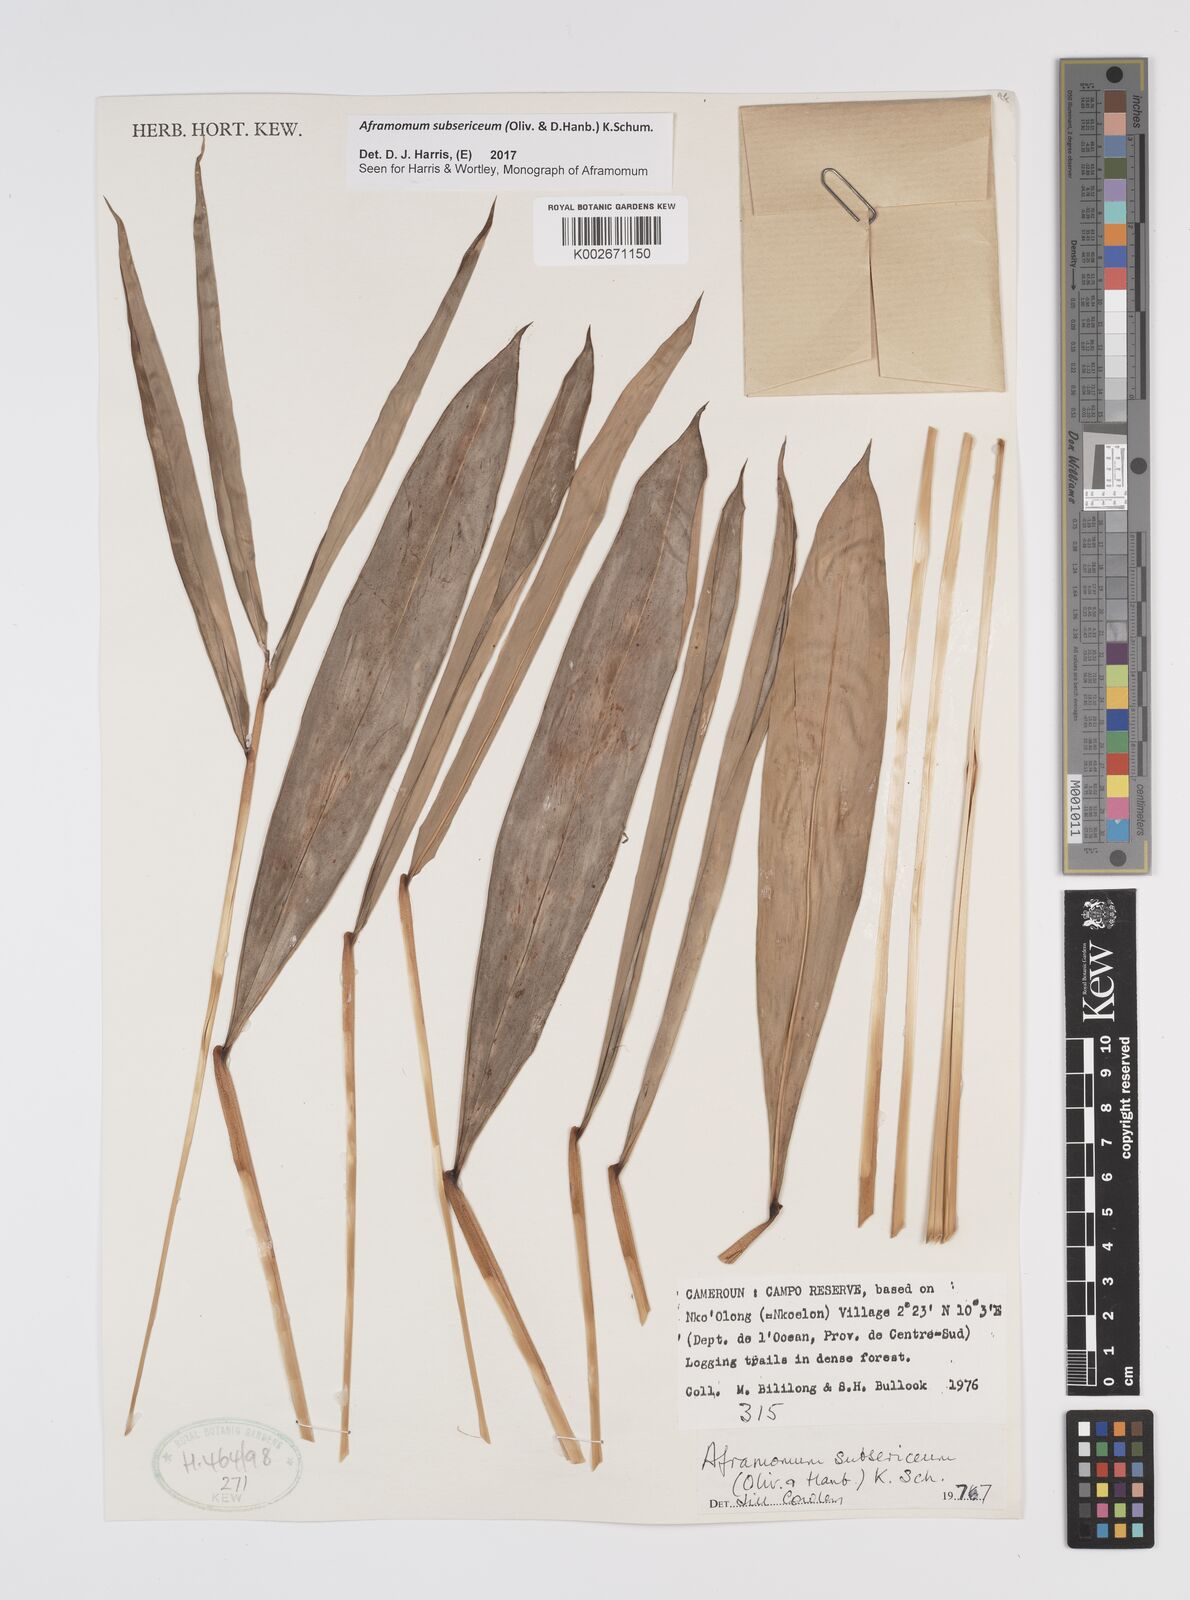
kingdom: Plantae
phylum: Tracheophyta
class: Liliopsida
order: Zingiberales
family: Zingiberaceae
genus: Aframomum
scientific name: Aframomum subsericeum
